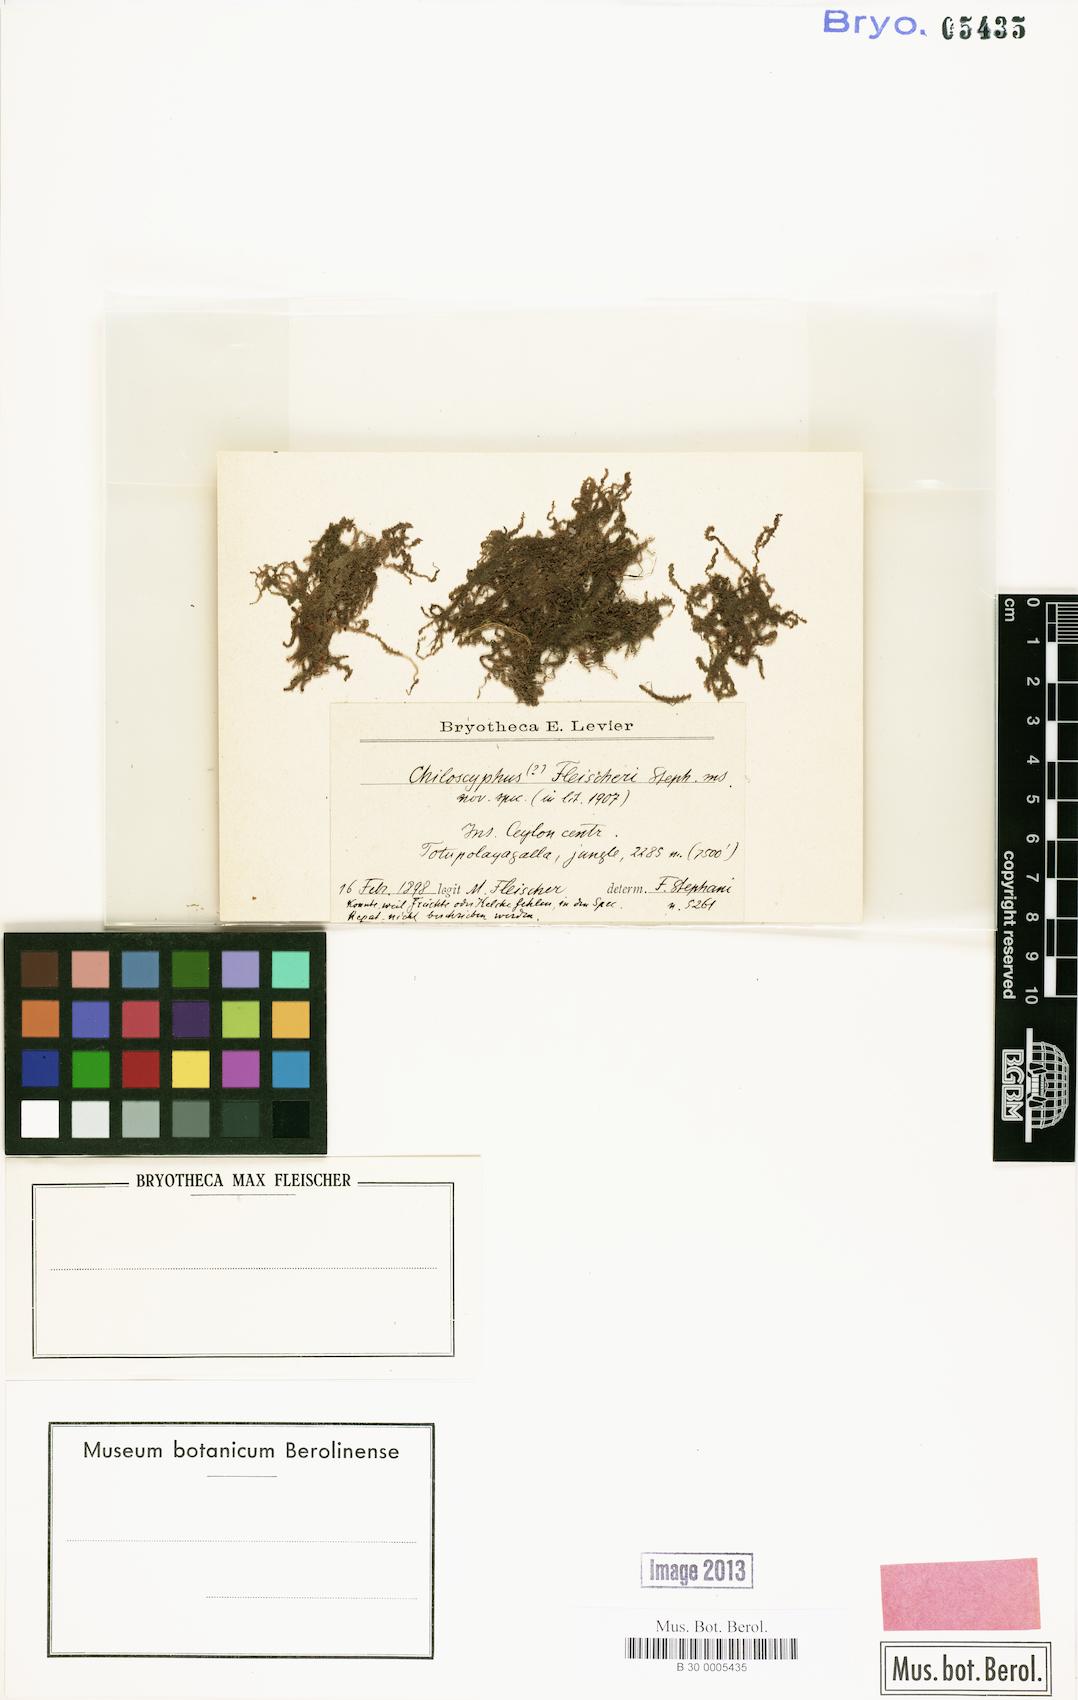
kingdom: Plantae
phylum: Marchantiophyta
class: Jungermanniopsida
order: Jungermanniales
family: Lophocoleaceae
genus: Heteroscyphus
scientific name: Heteroscyphus fleischeri
